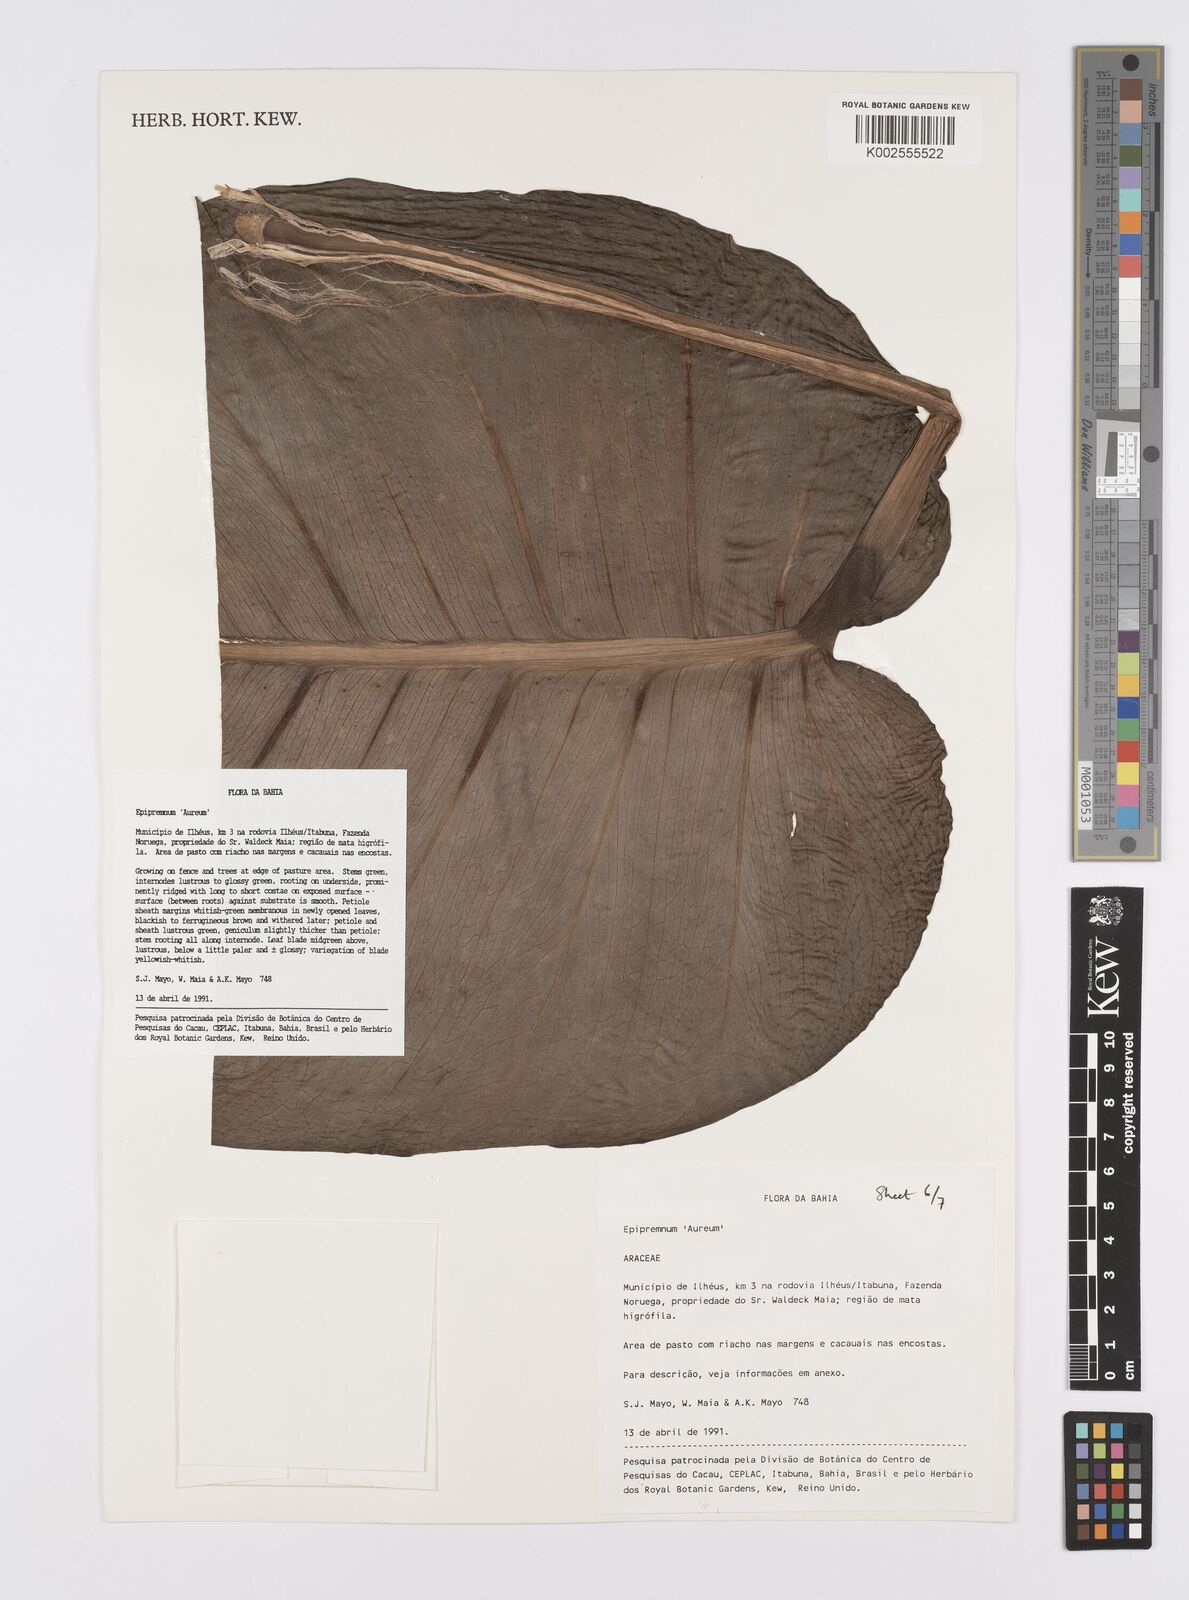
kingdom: Plantae
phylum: Tracheophyta
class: Liliopsida
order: Alismatales
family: Araceae
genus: Epipremnum
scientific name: Epipremnum aureum
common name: Golden hunter's-robe
